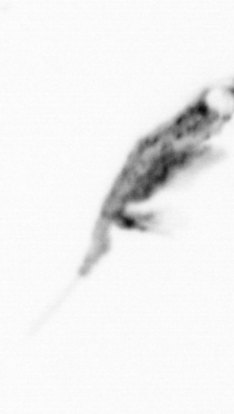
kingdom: Animalia
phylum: Arthropoda
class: Copepoda
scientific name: Copepoda
